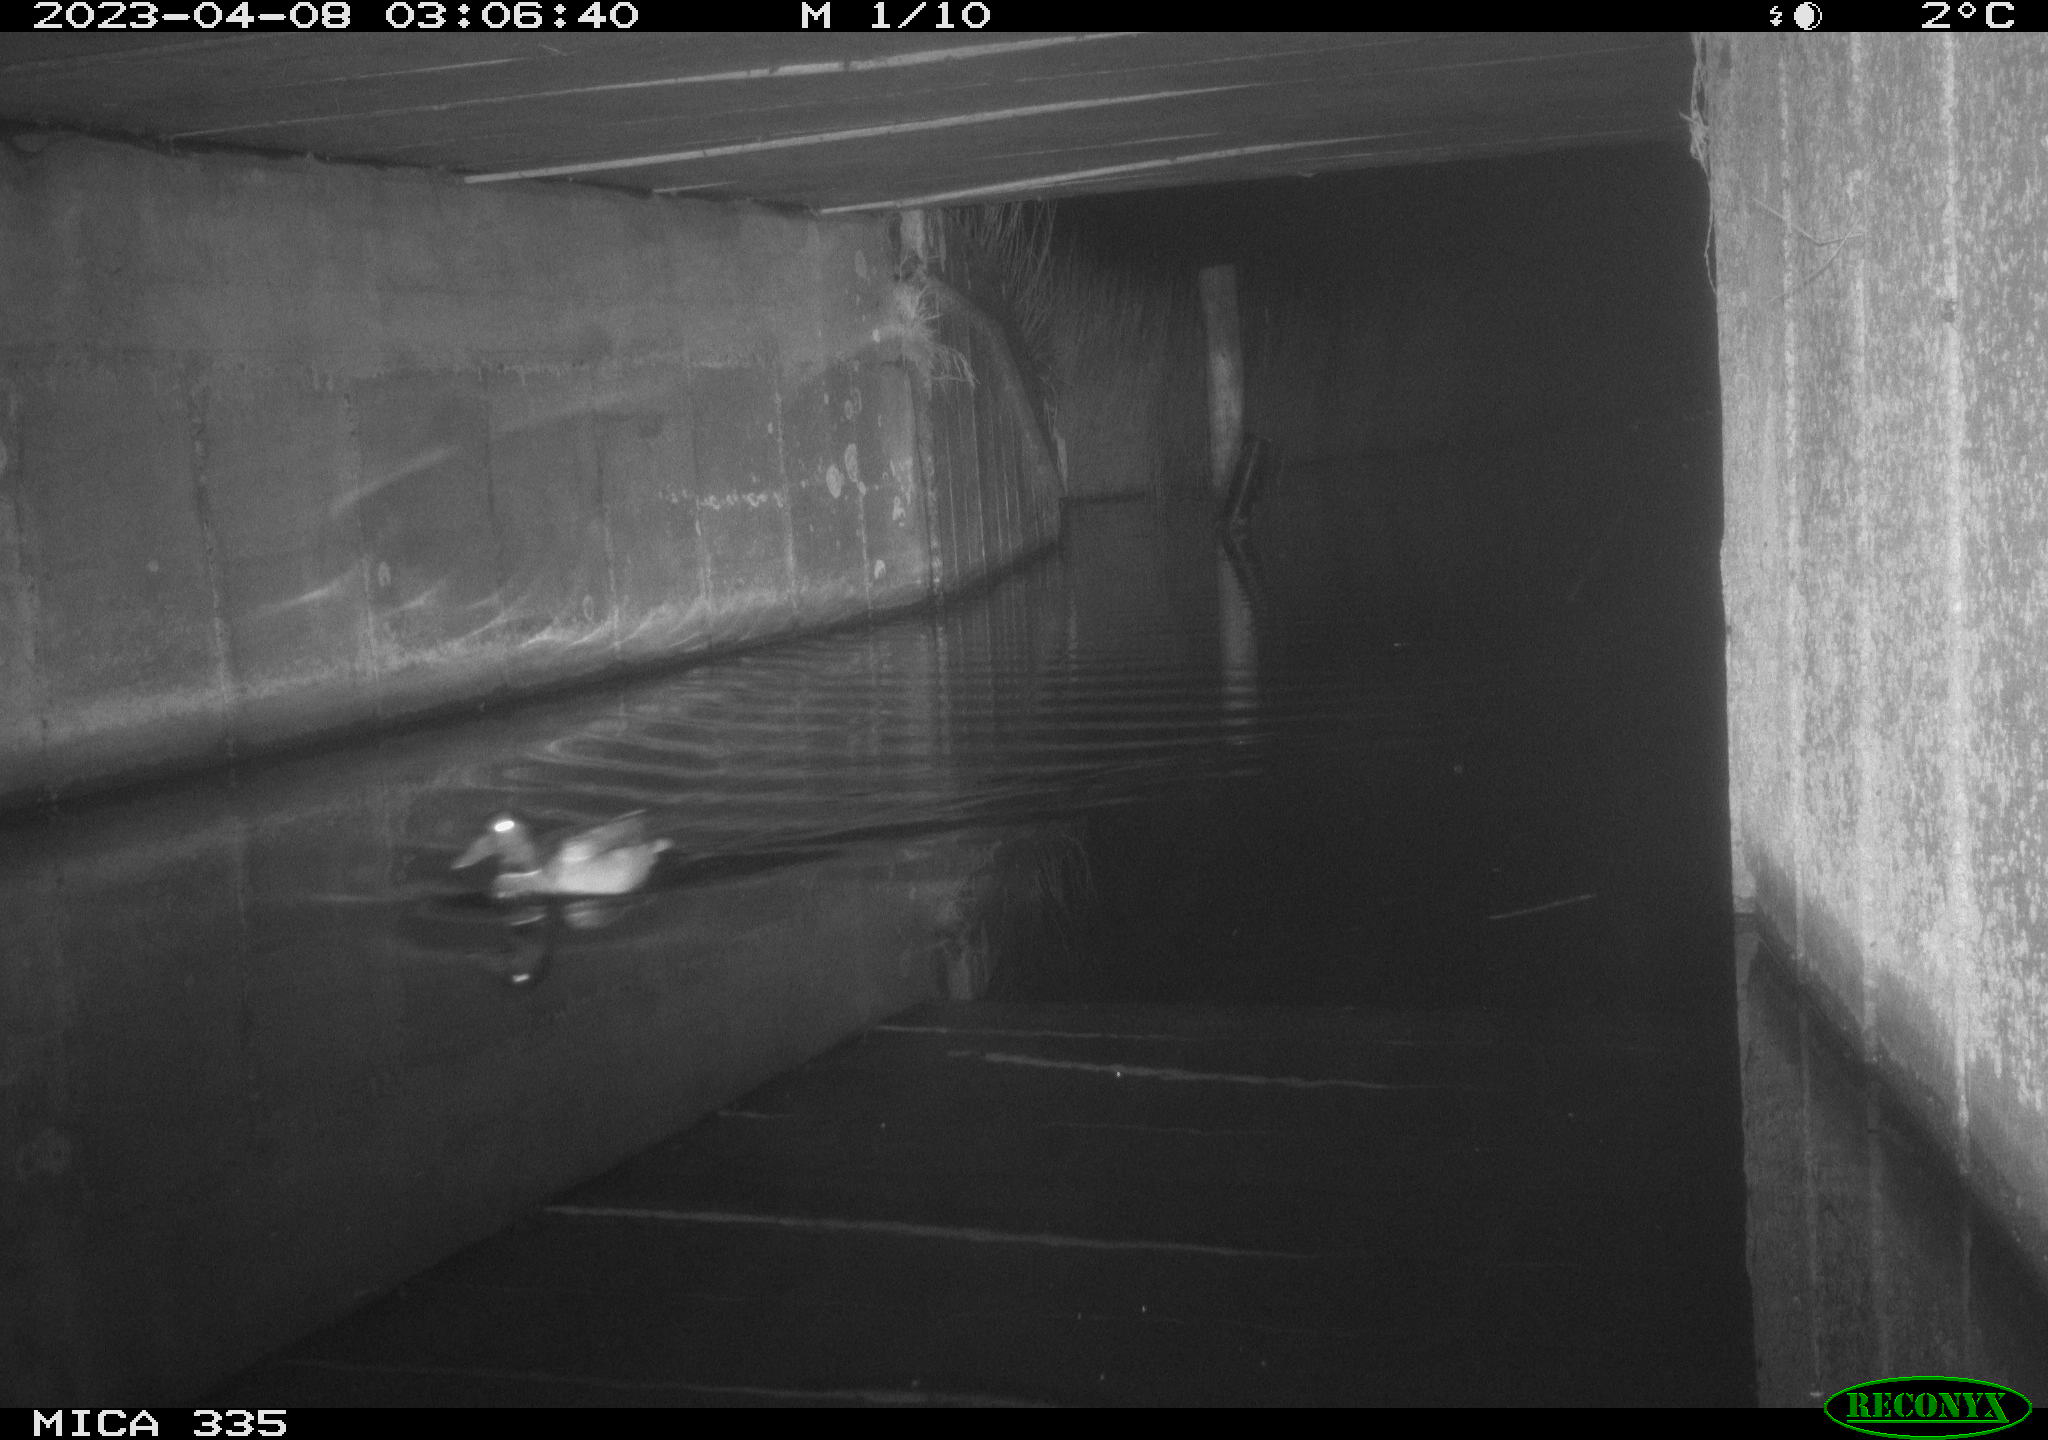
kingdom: Animalia
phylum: Chordata
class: Aves
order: Anseriformes
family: Anatidae
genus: Anas
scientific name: Anas
